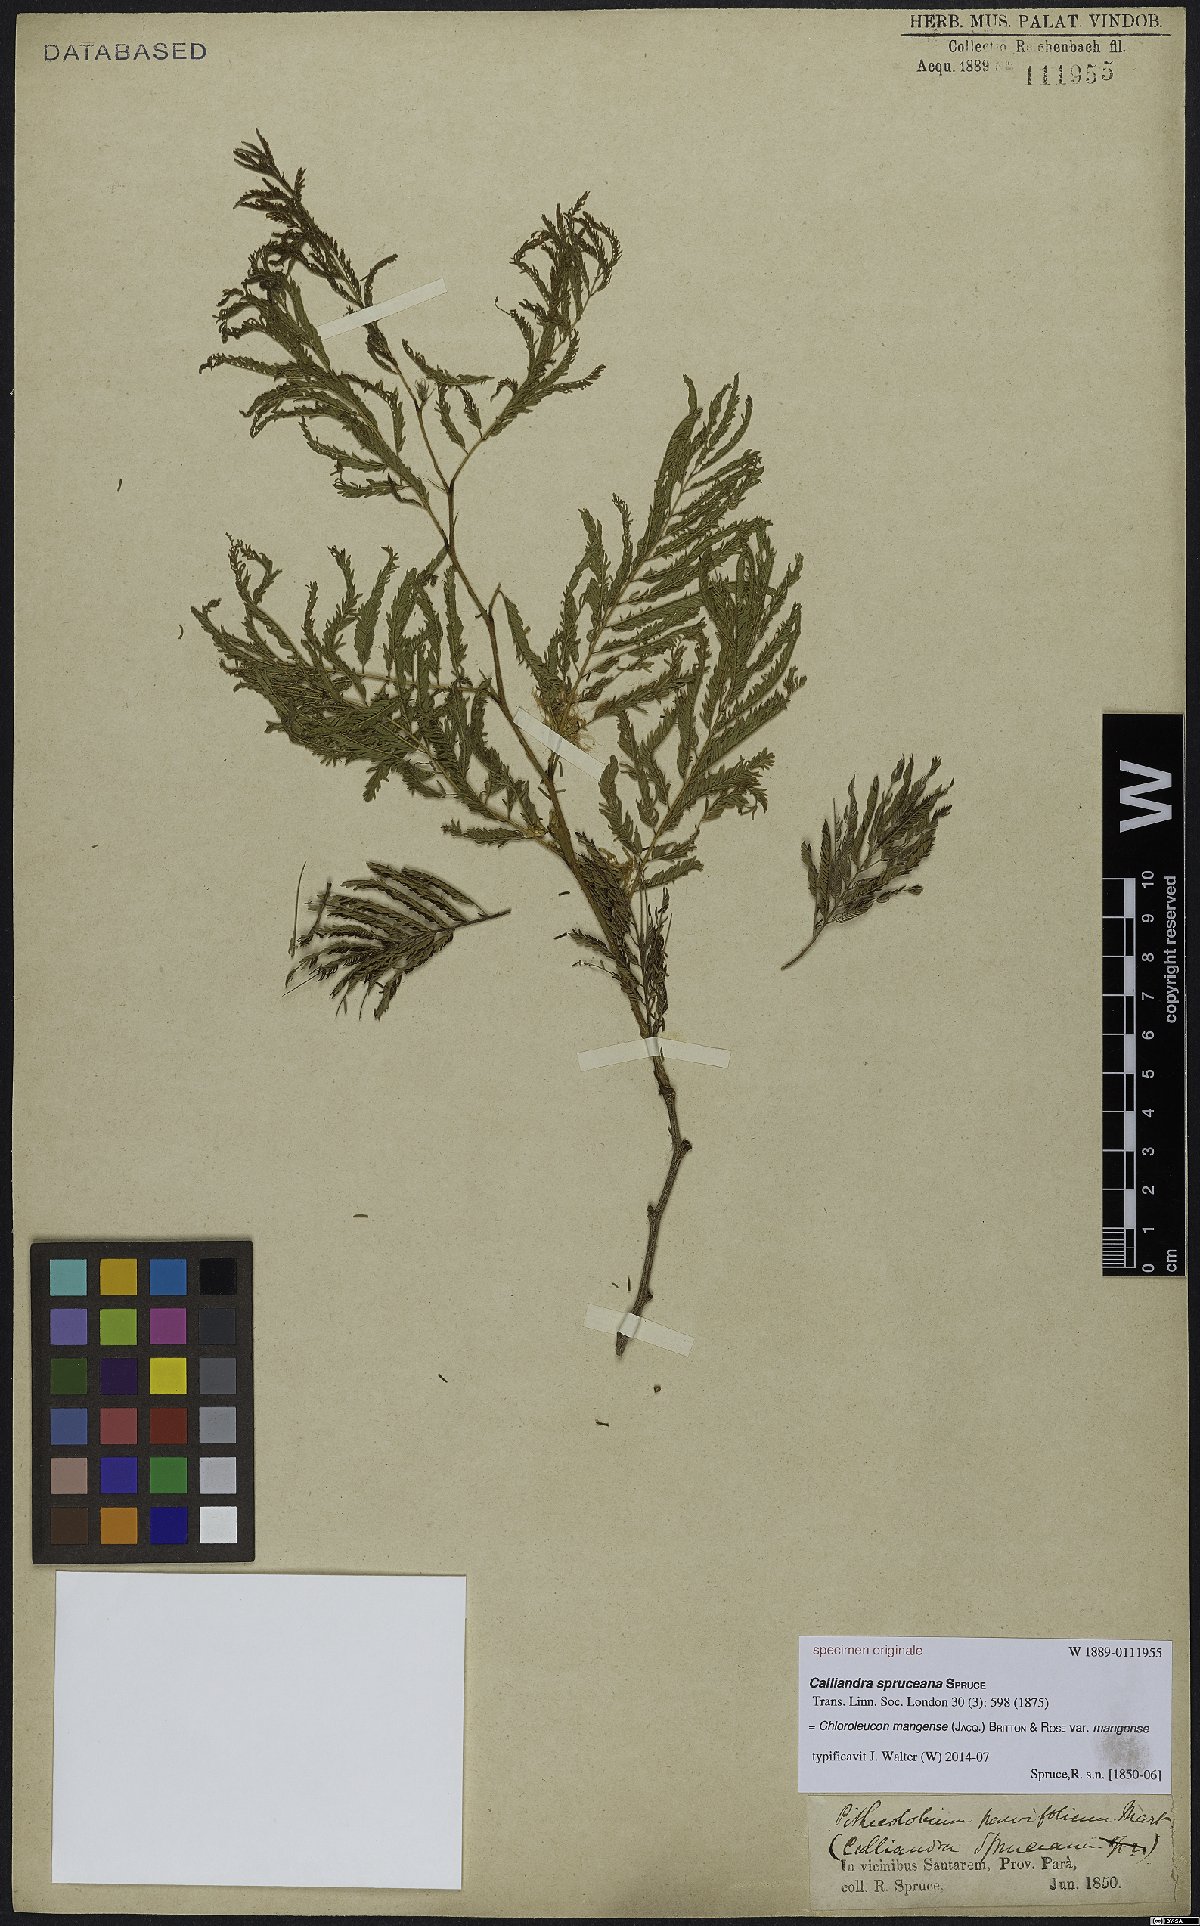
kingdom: Plantae
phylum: Tracheophyta
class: Magnoliopsida
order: Fabales
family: Fabaceae
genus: Chloroleucon
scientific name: Chloroleucon mangense
